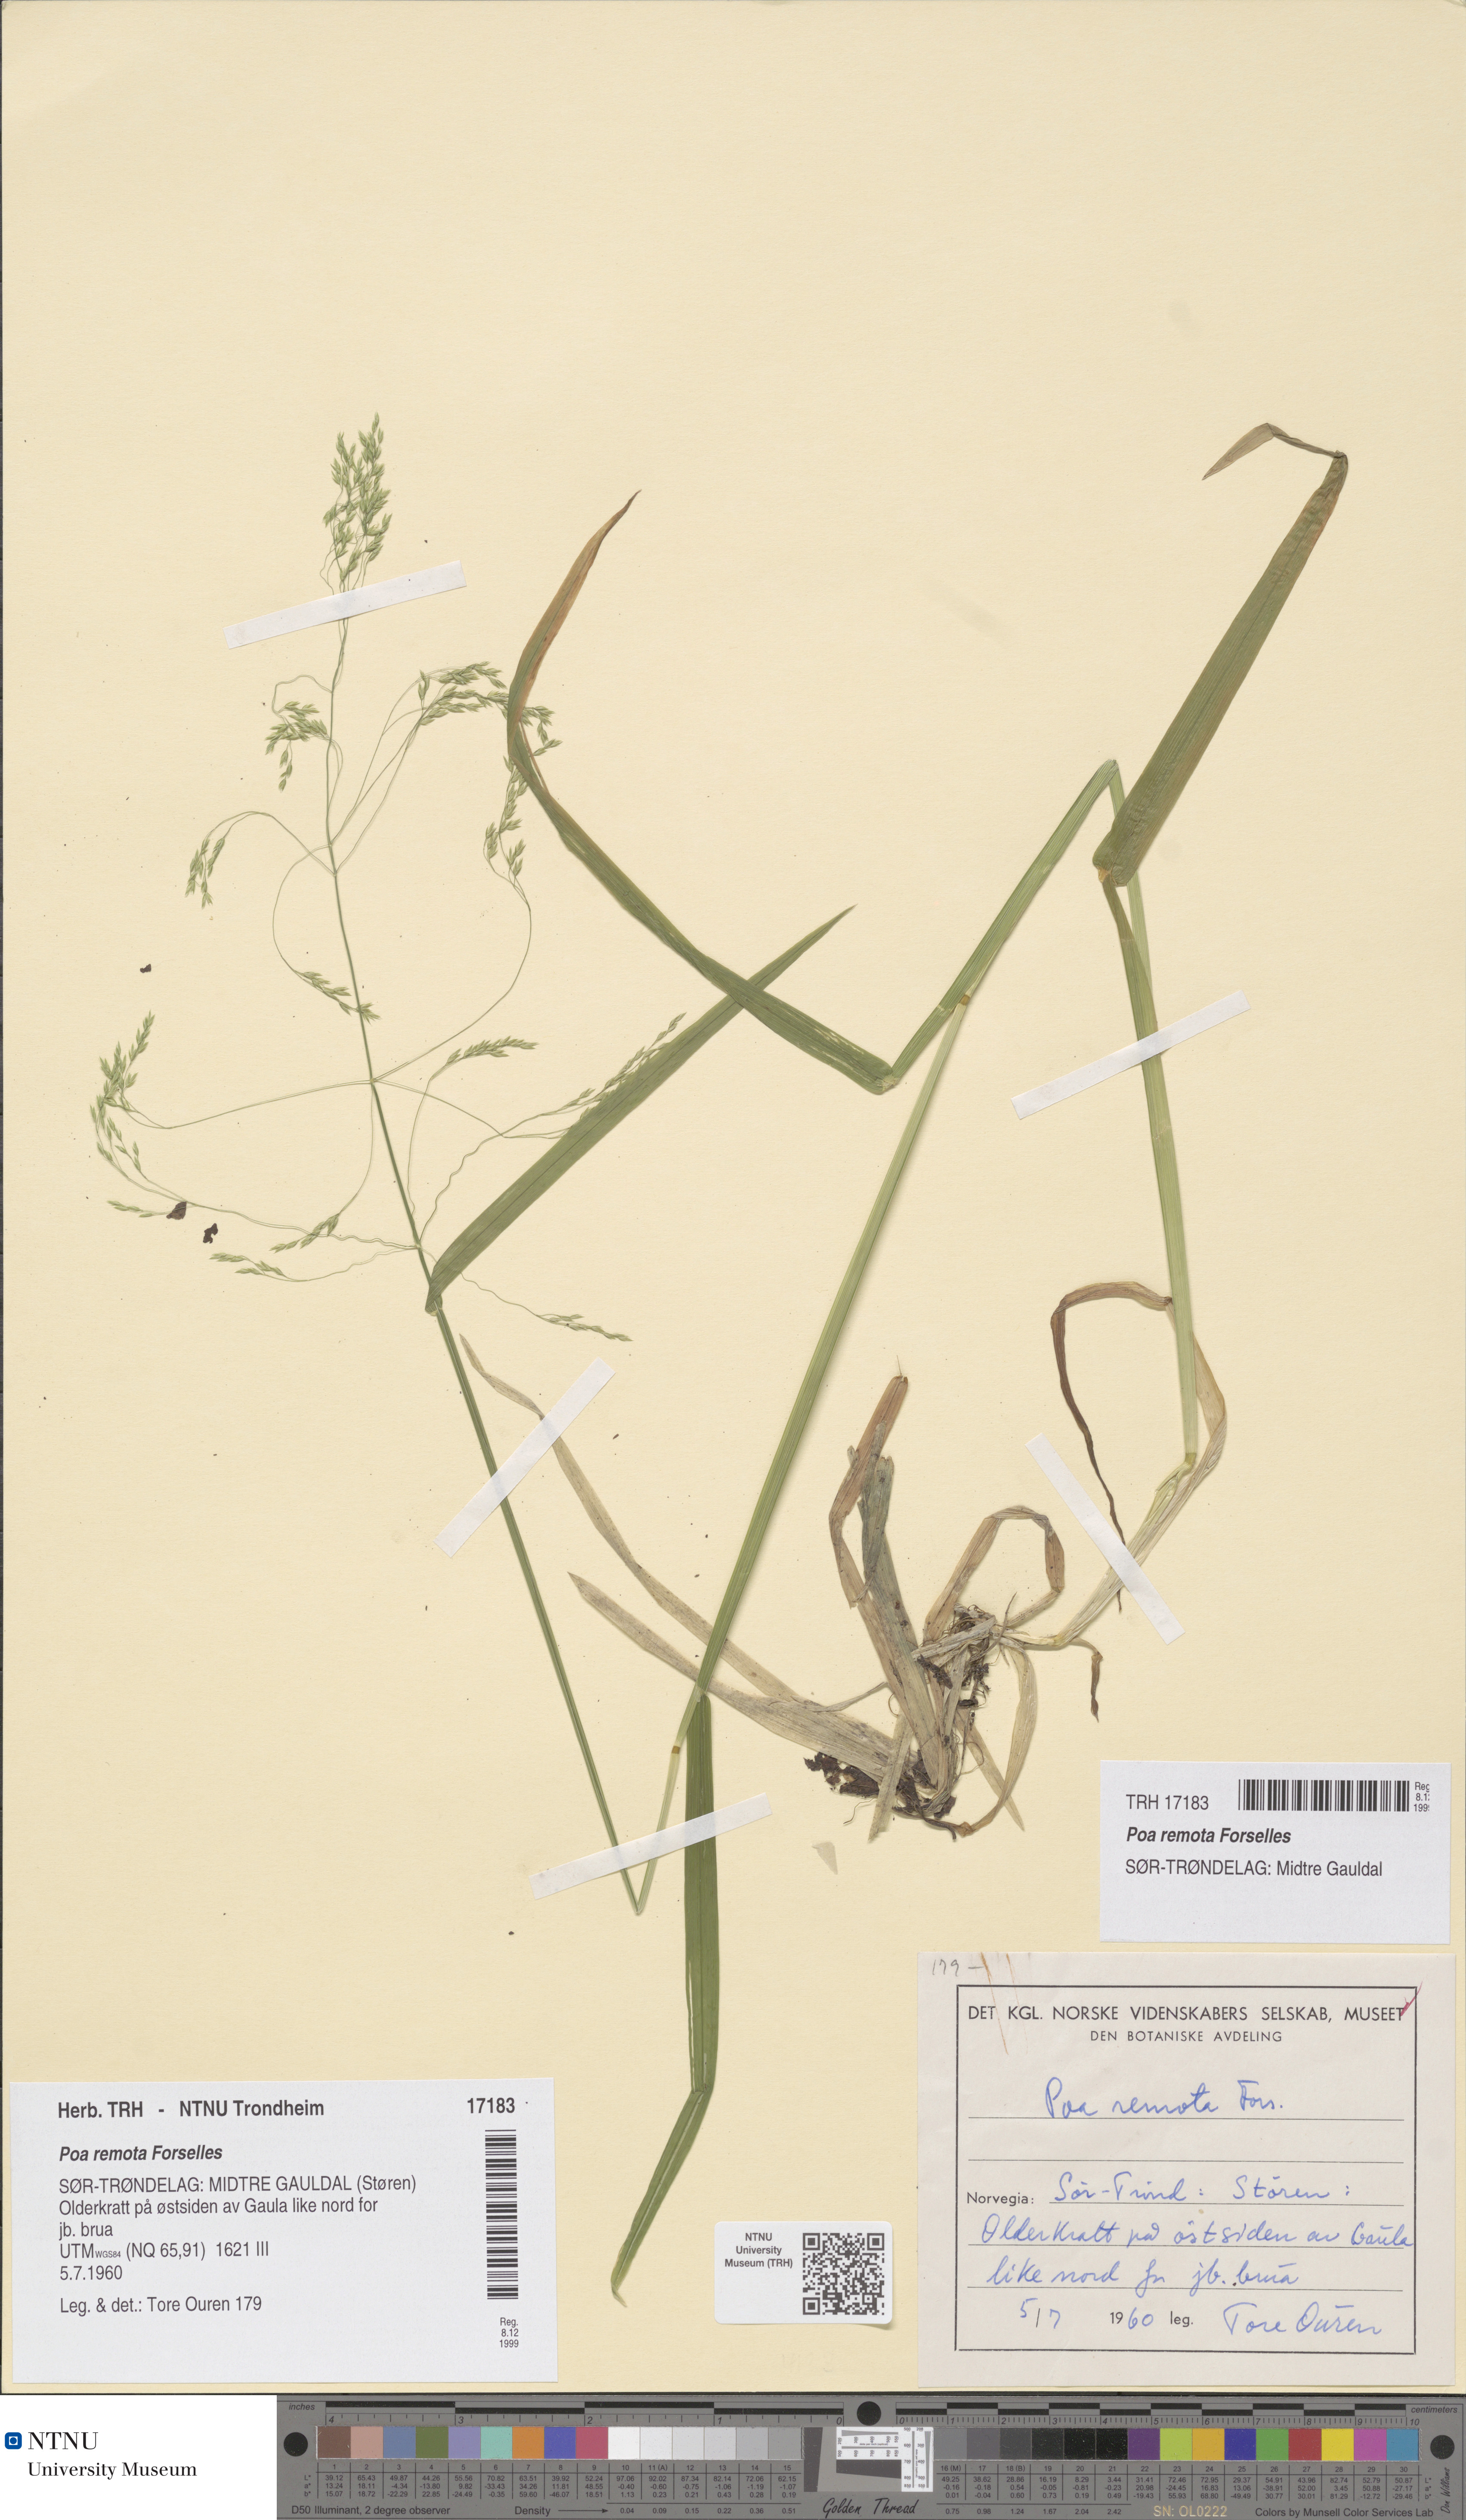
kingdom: Plantae
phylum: Tracheophyta
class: Liliopsida
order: Poales
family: Poaceae
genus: Poa
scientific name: Poa remota
